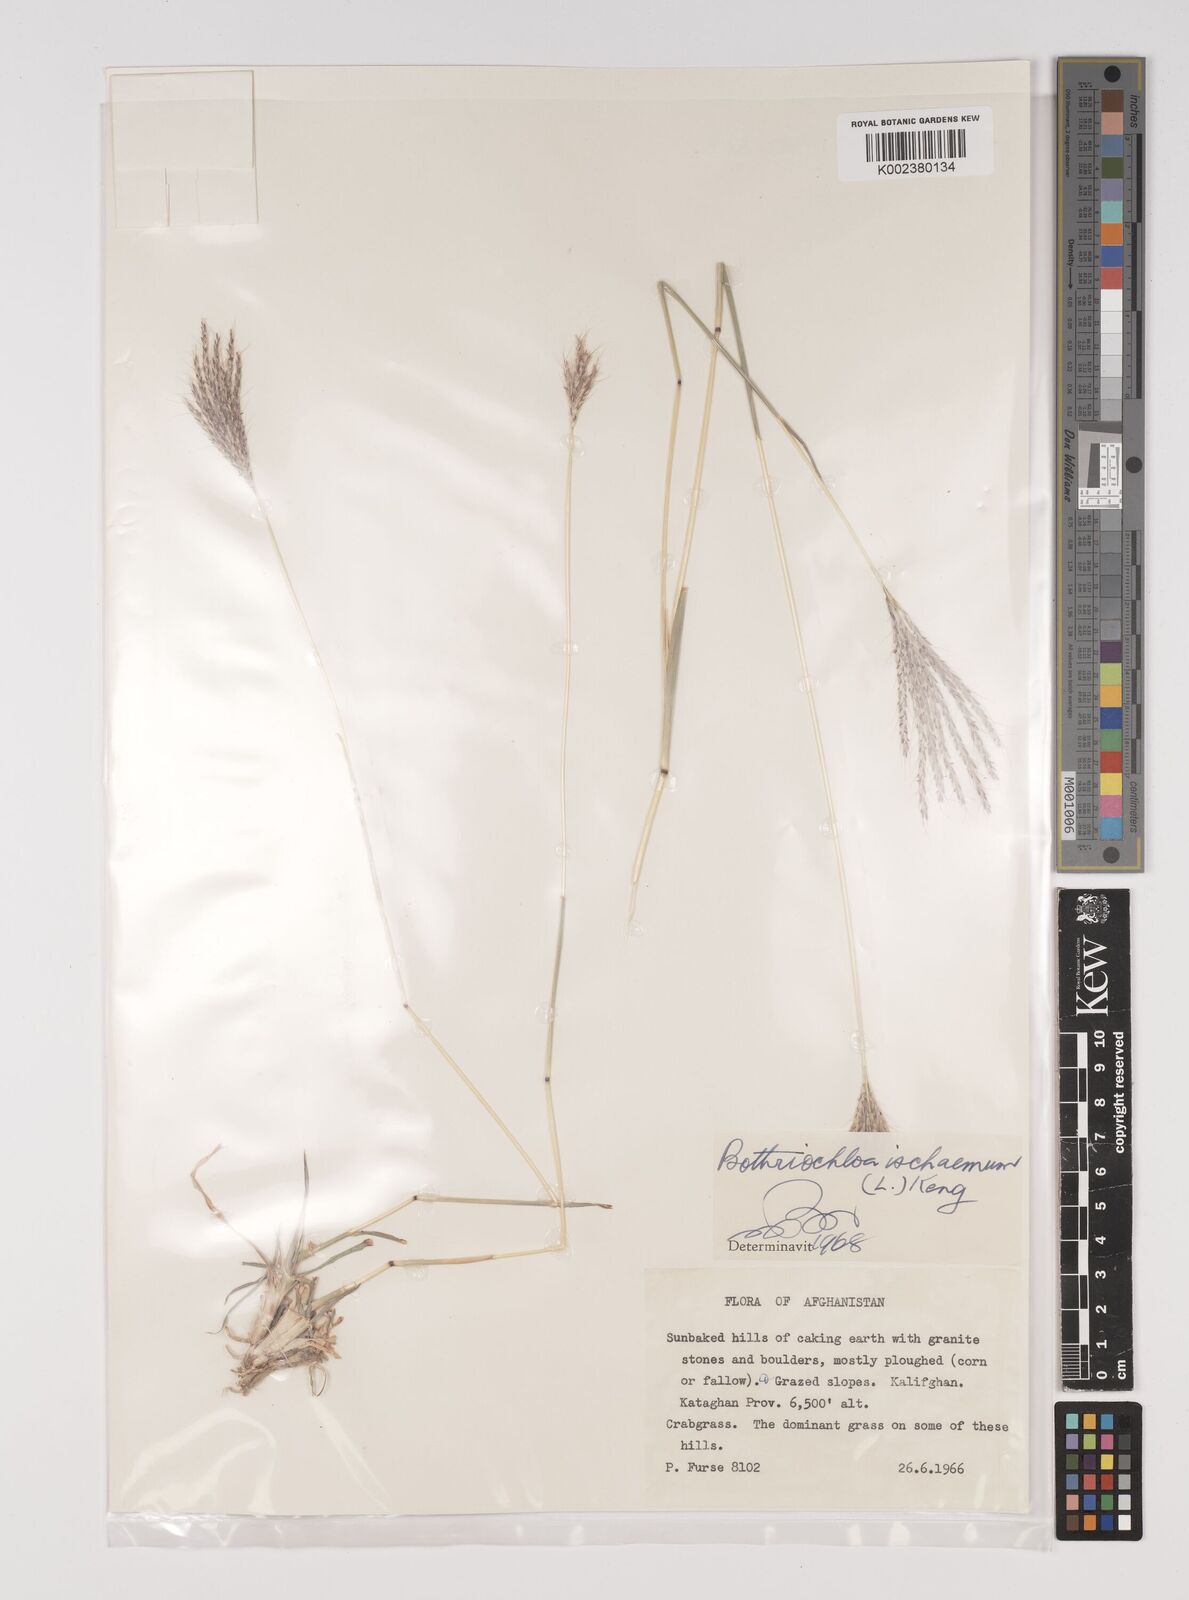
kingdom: Plantae
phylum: Tracheophyta
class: Liliopsida
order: Poales
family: Poaceae
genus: Bothriochloa
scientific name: Bothriochloa ischaemum
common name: Yellow bluestem
